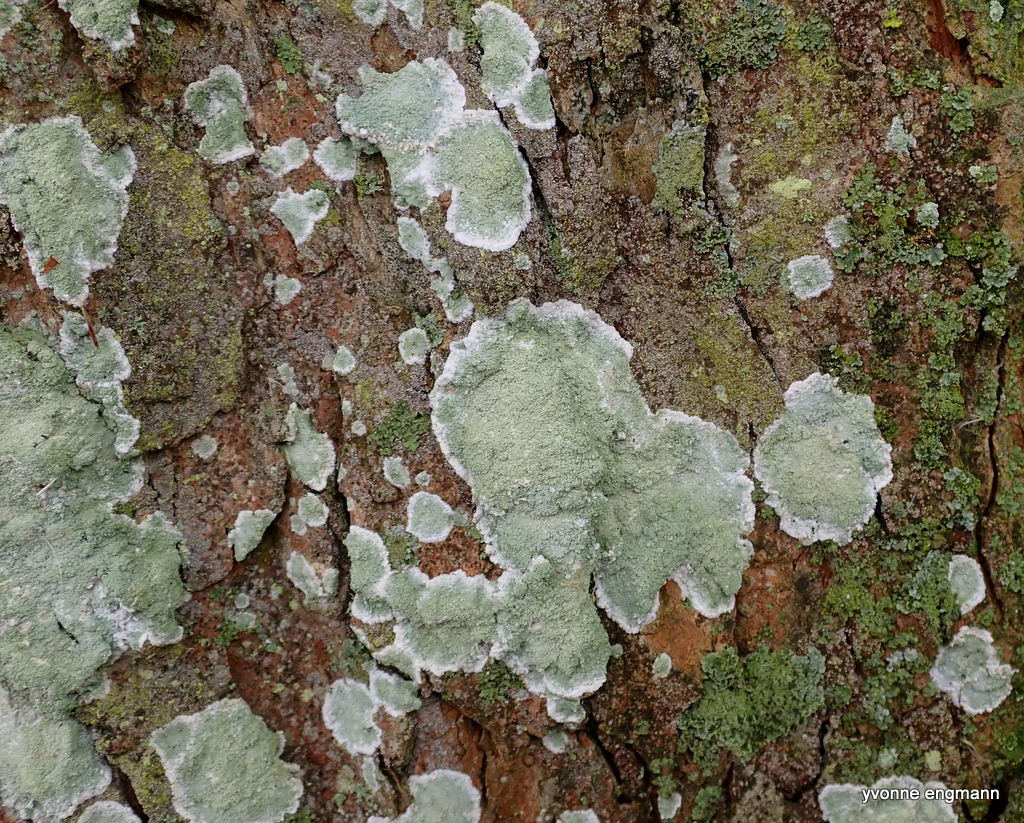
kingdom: Fungi
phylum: Ascomycota
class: Lecanoromycetes
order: Lecanorales
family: Haematommataceae
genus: Haematomma
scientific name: Haematomma ochroleucum
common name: gul trådkantlav
